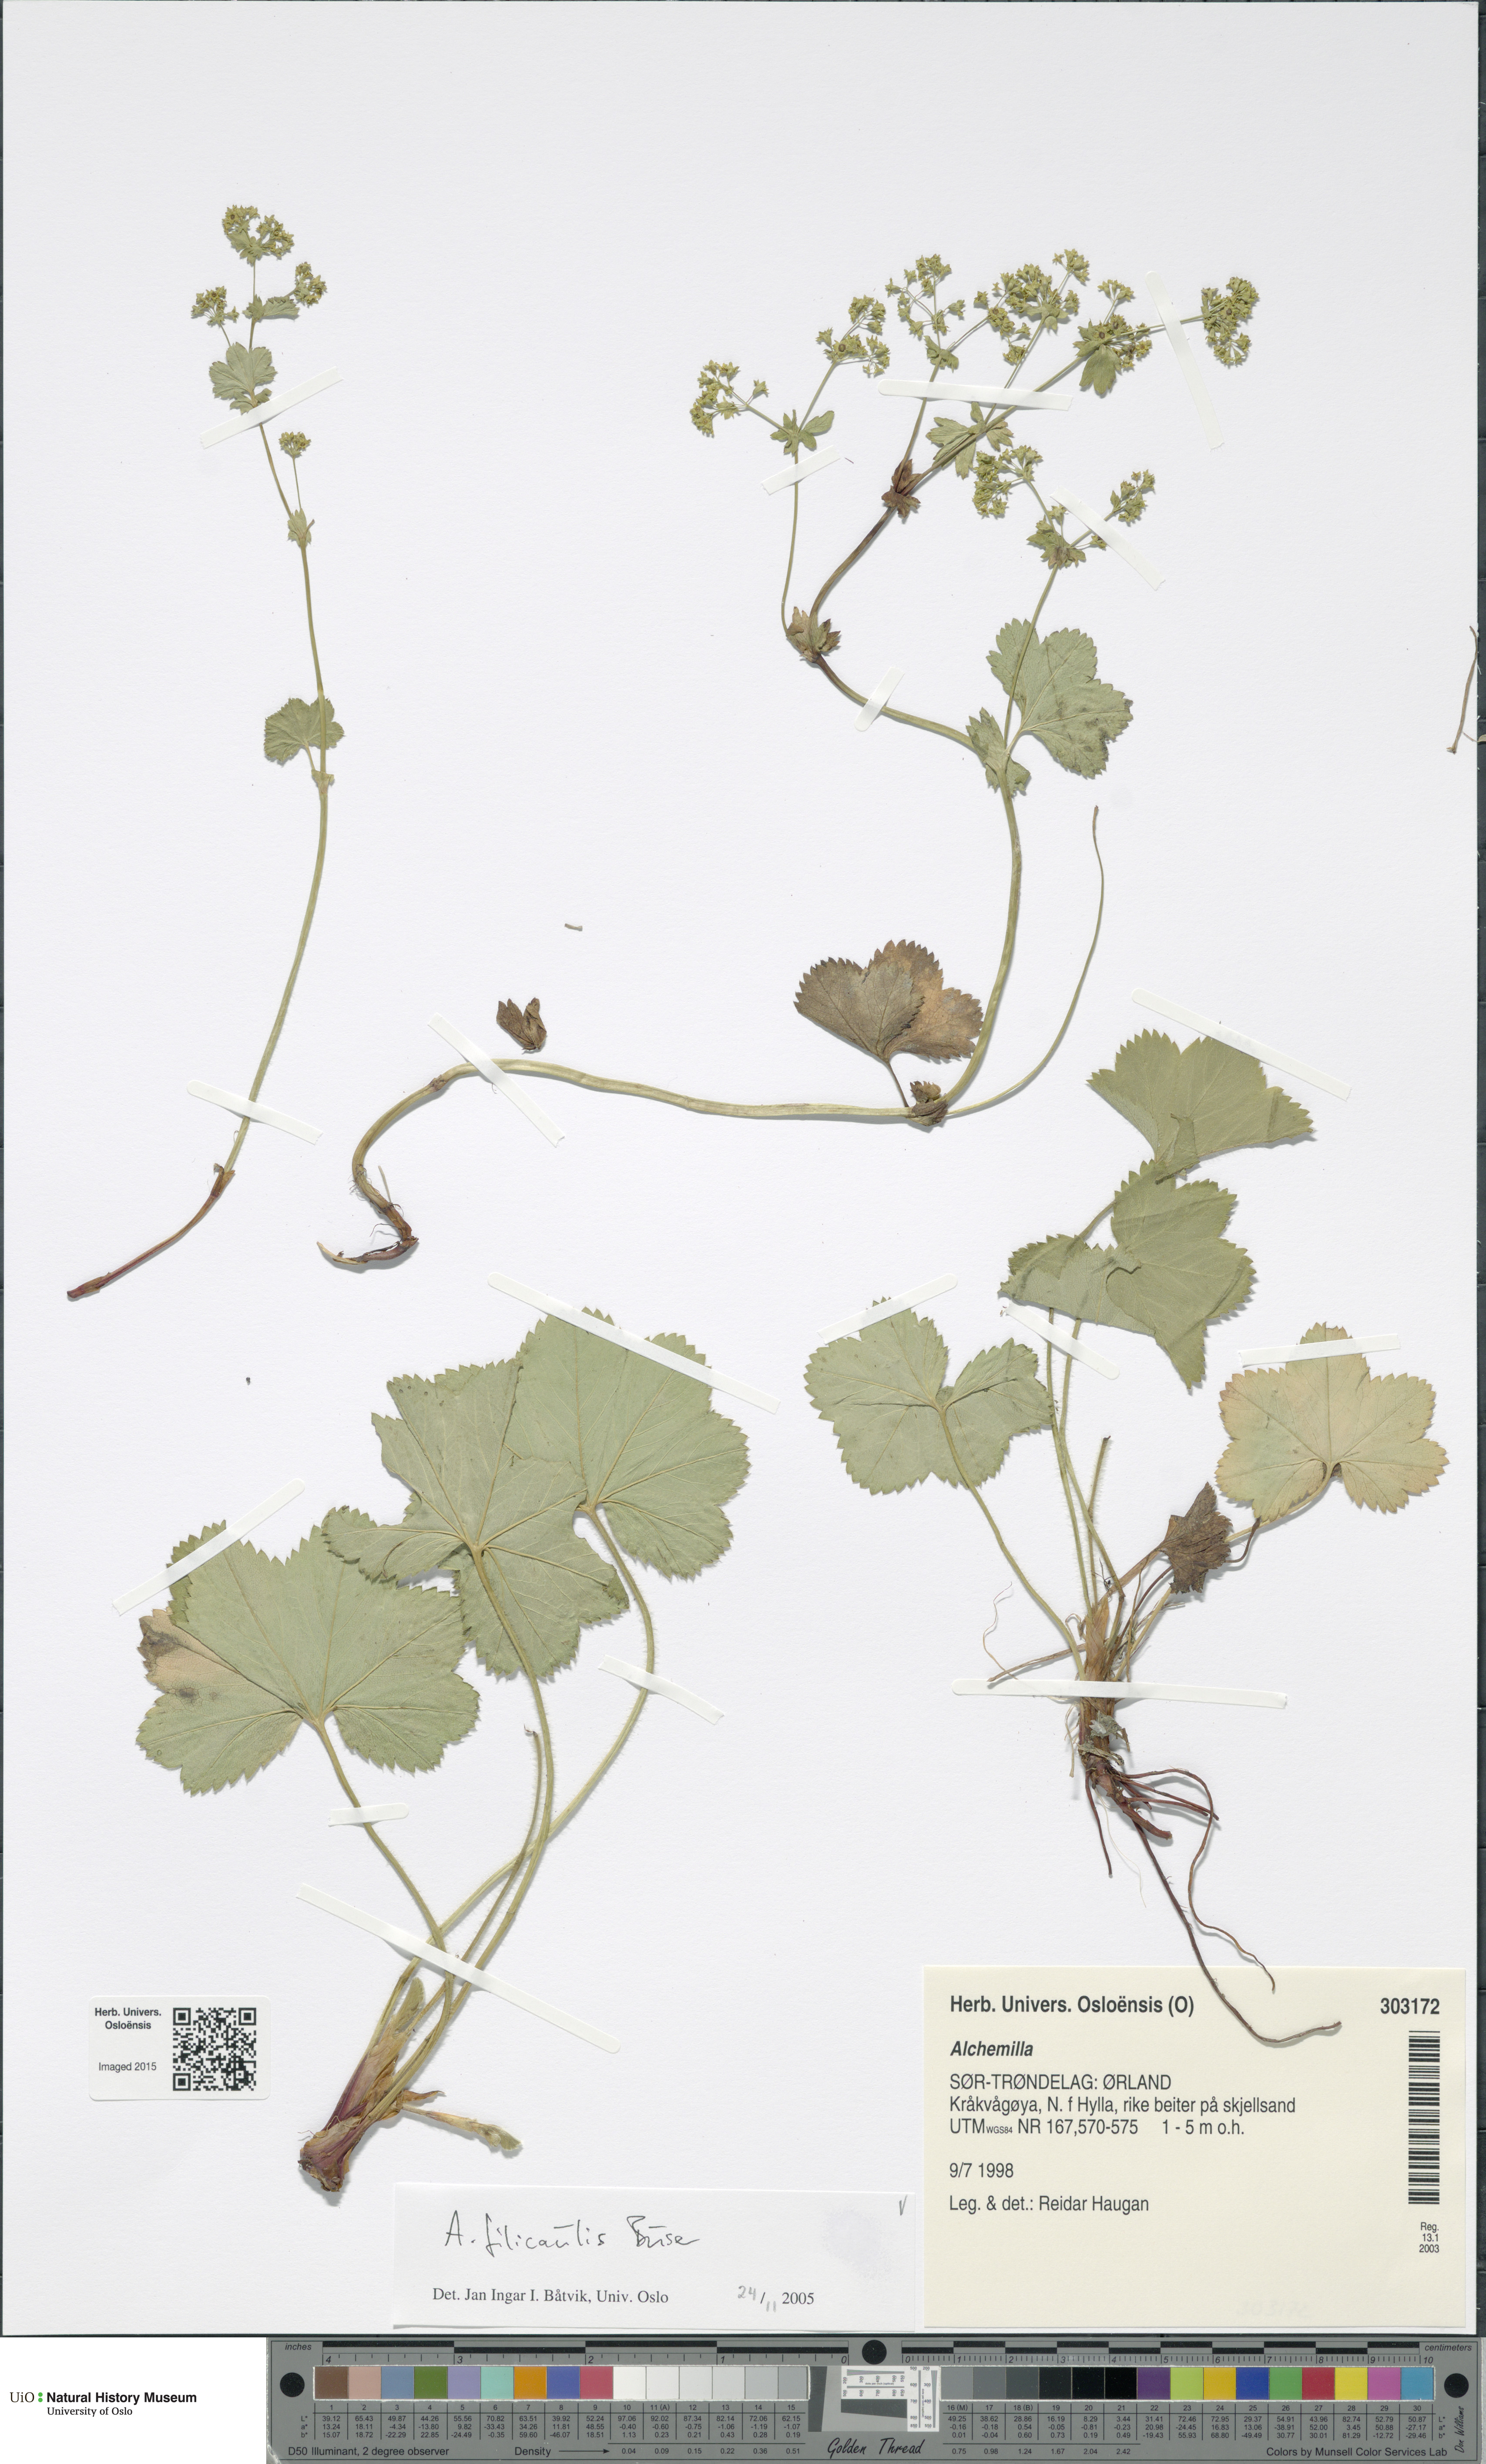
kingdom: Plantae
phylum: Tracheophyta
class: Magnoliopsida
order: Rosales
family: Rosaceae
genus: Alchemilla
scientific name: Alchemilla filicaulis
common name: Hairy lady's-mantle
